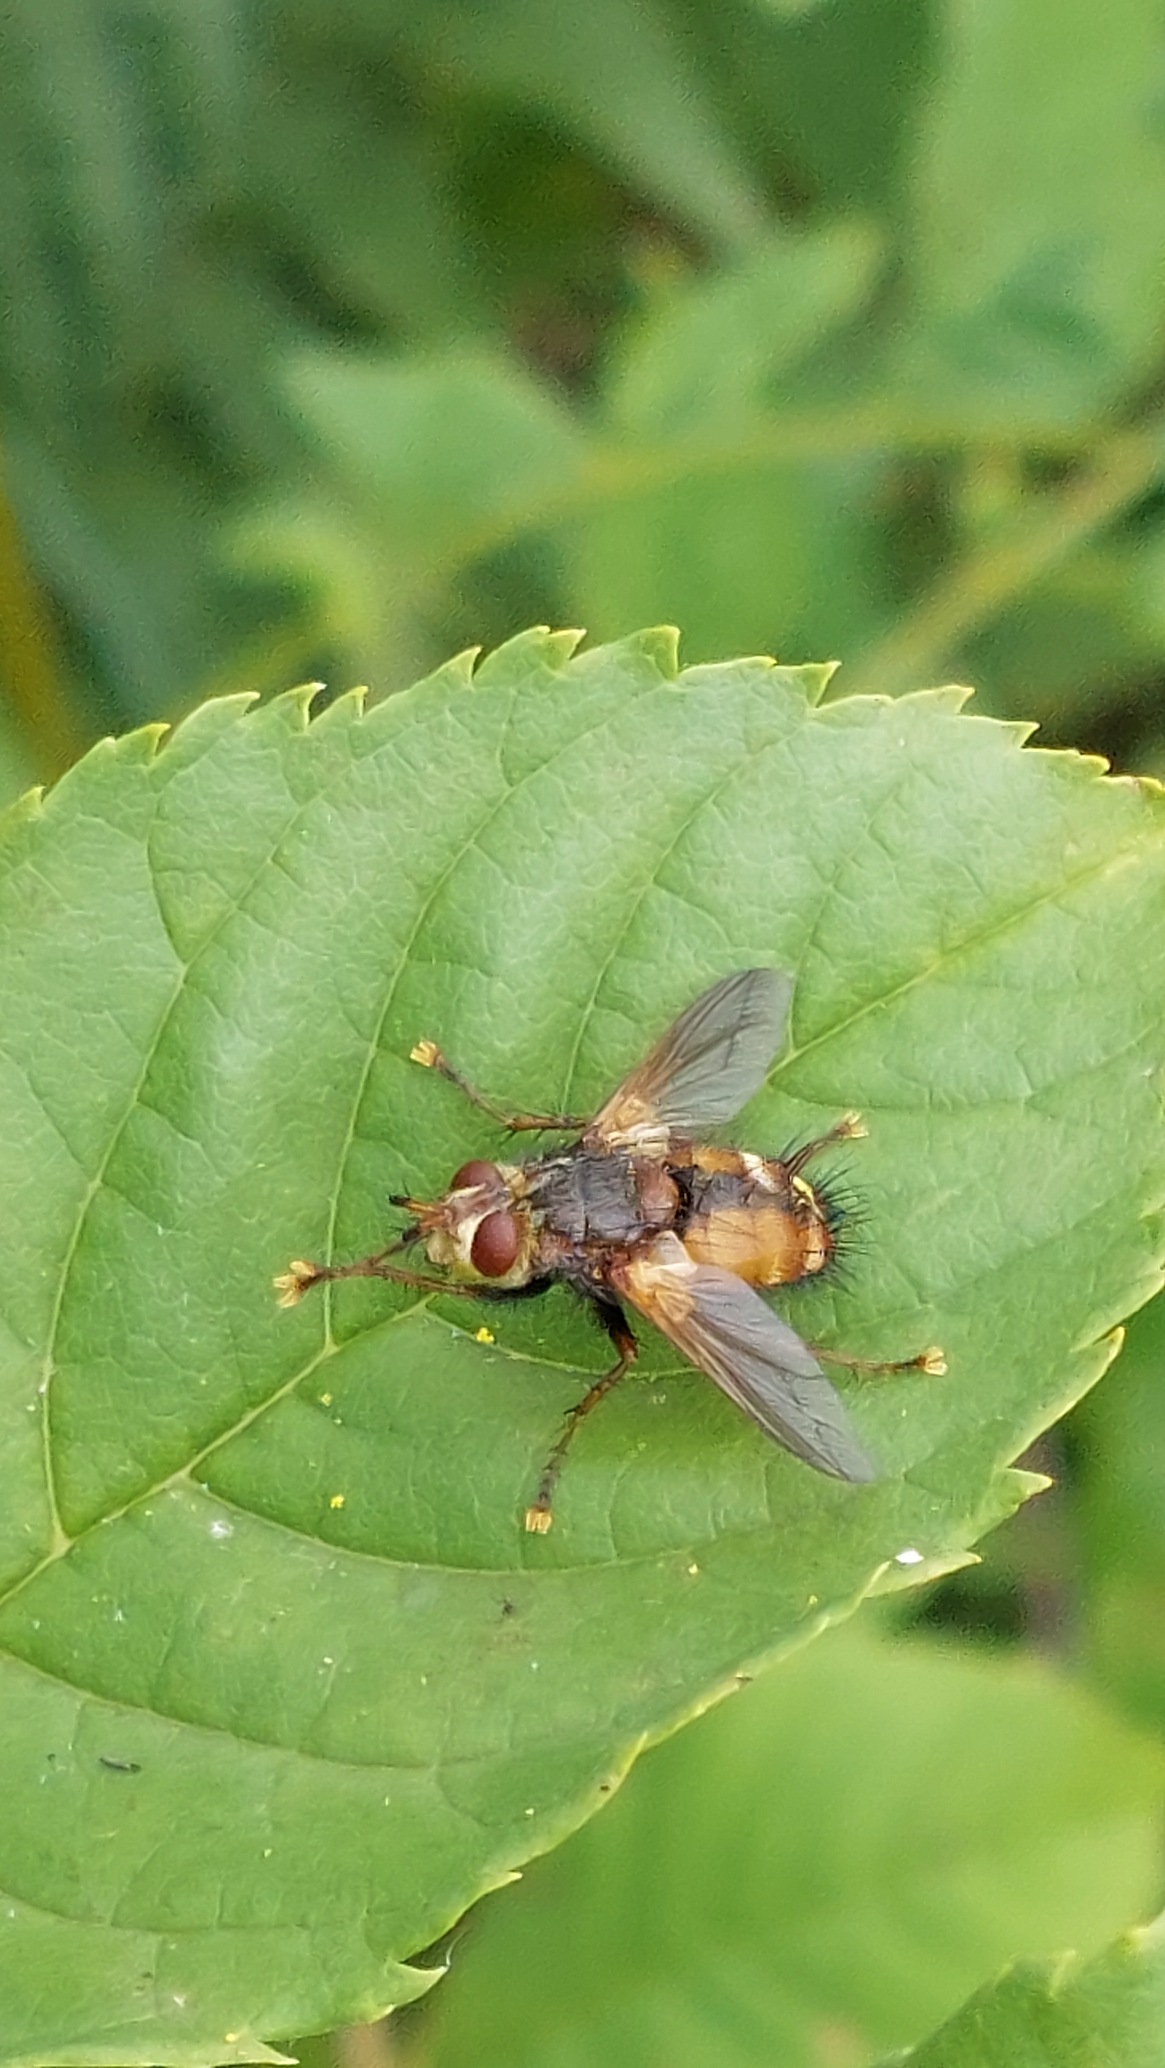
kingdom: Animalia
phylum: Arthropoda
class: Insecta
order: Diptera
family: Tachinidae
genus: Tachina
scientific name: Tachina fera
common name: Mellemfluen oskar
